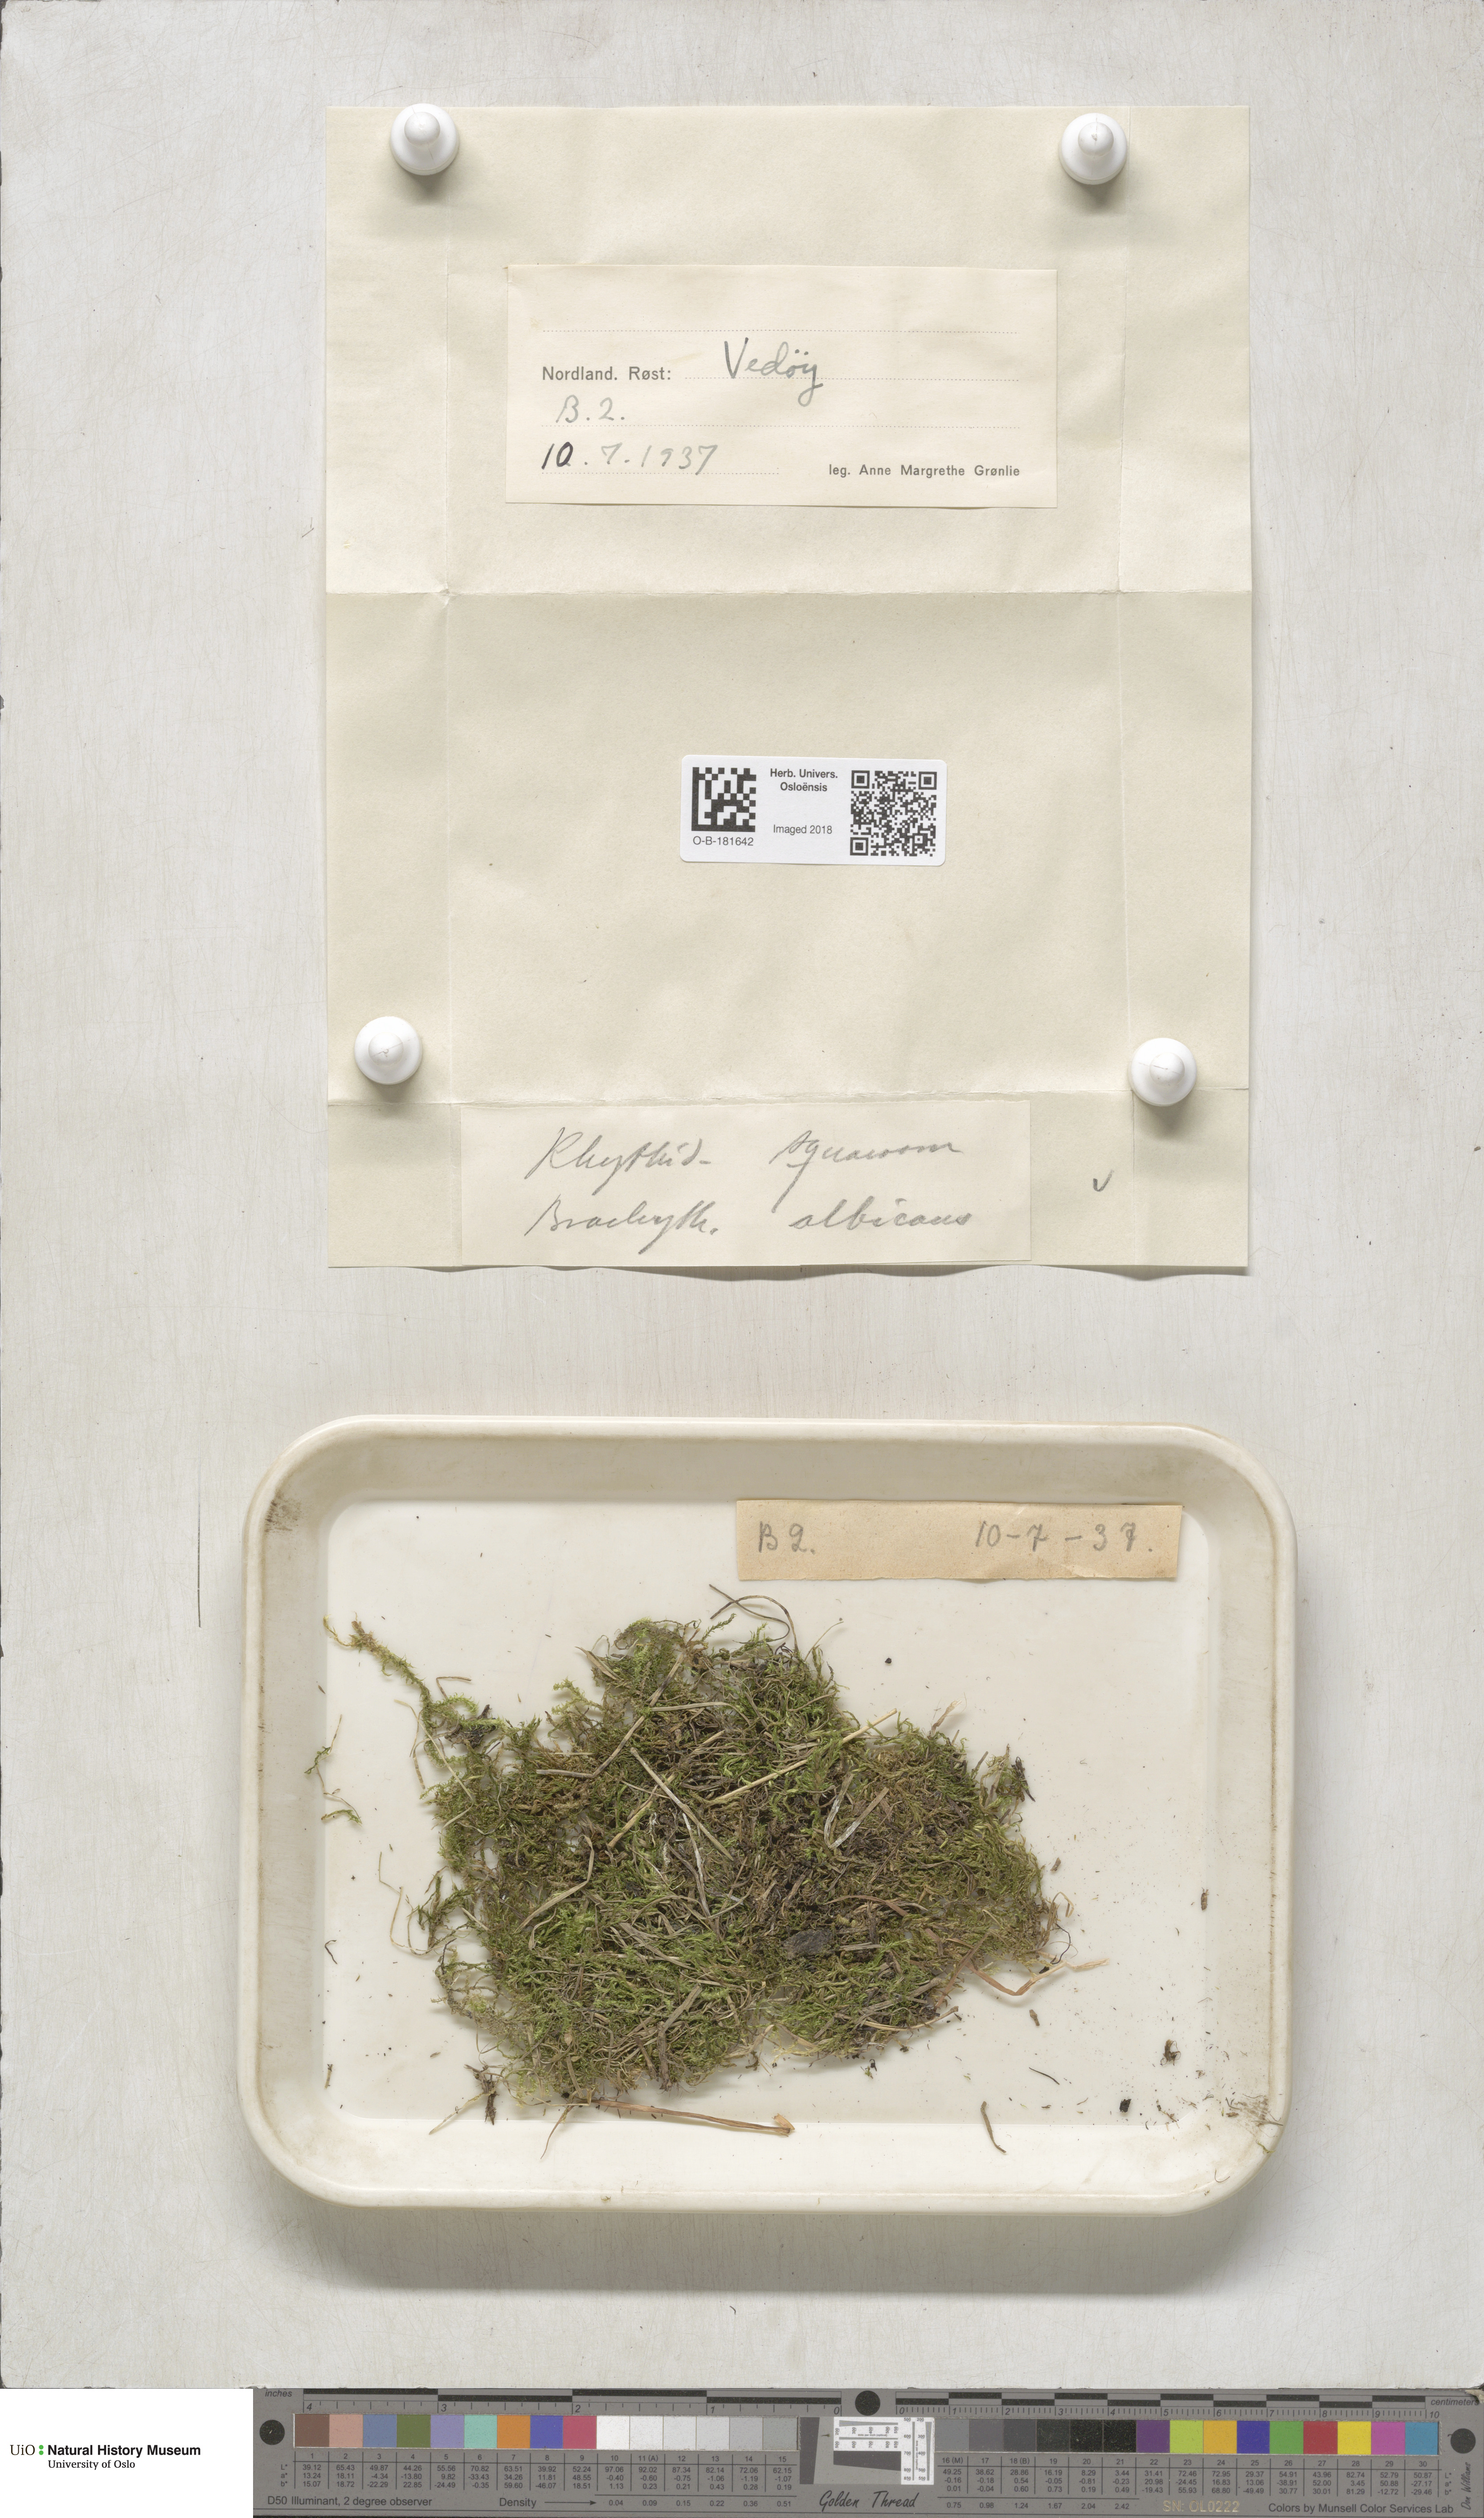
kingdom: Plantae
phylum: Bryophyta
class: Bryopsida
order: Hypnales
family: Hylocomiaceae
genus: Rhytidiadelphus
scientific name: Rhytidiadelphus squarrosus
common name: Springy turf-moss
